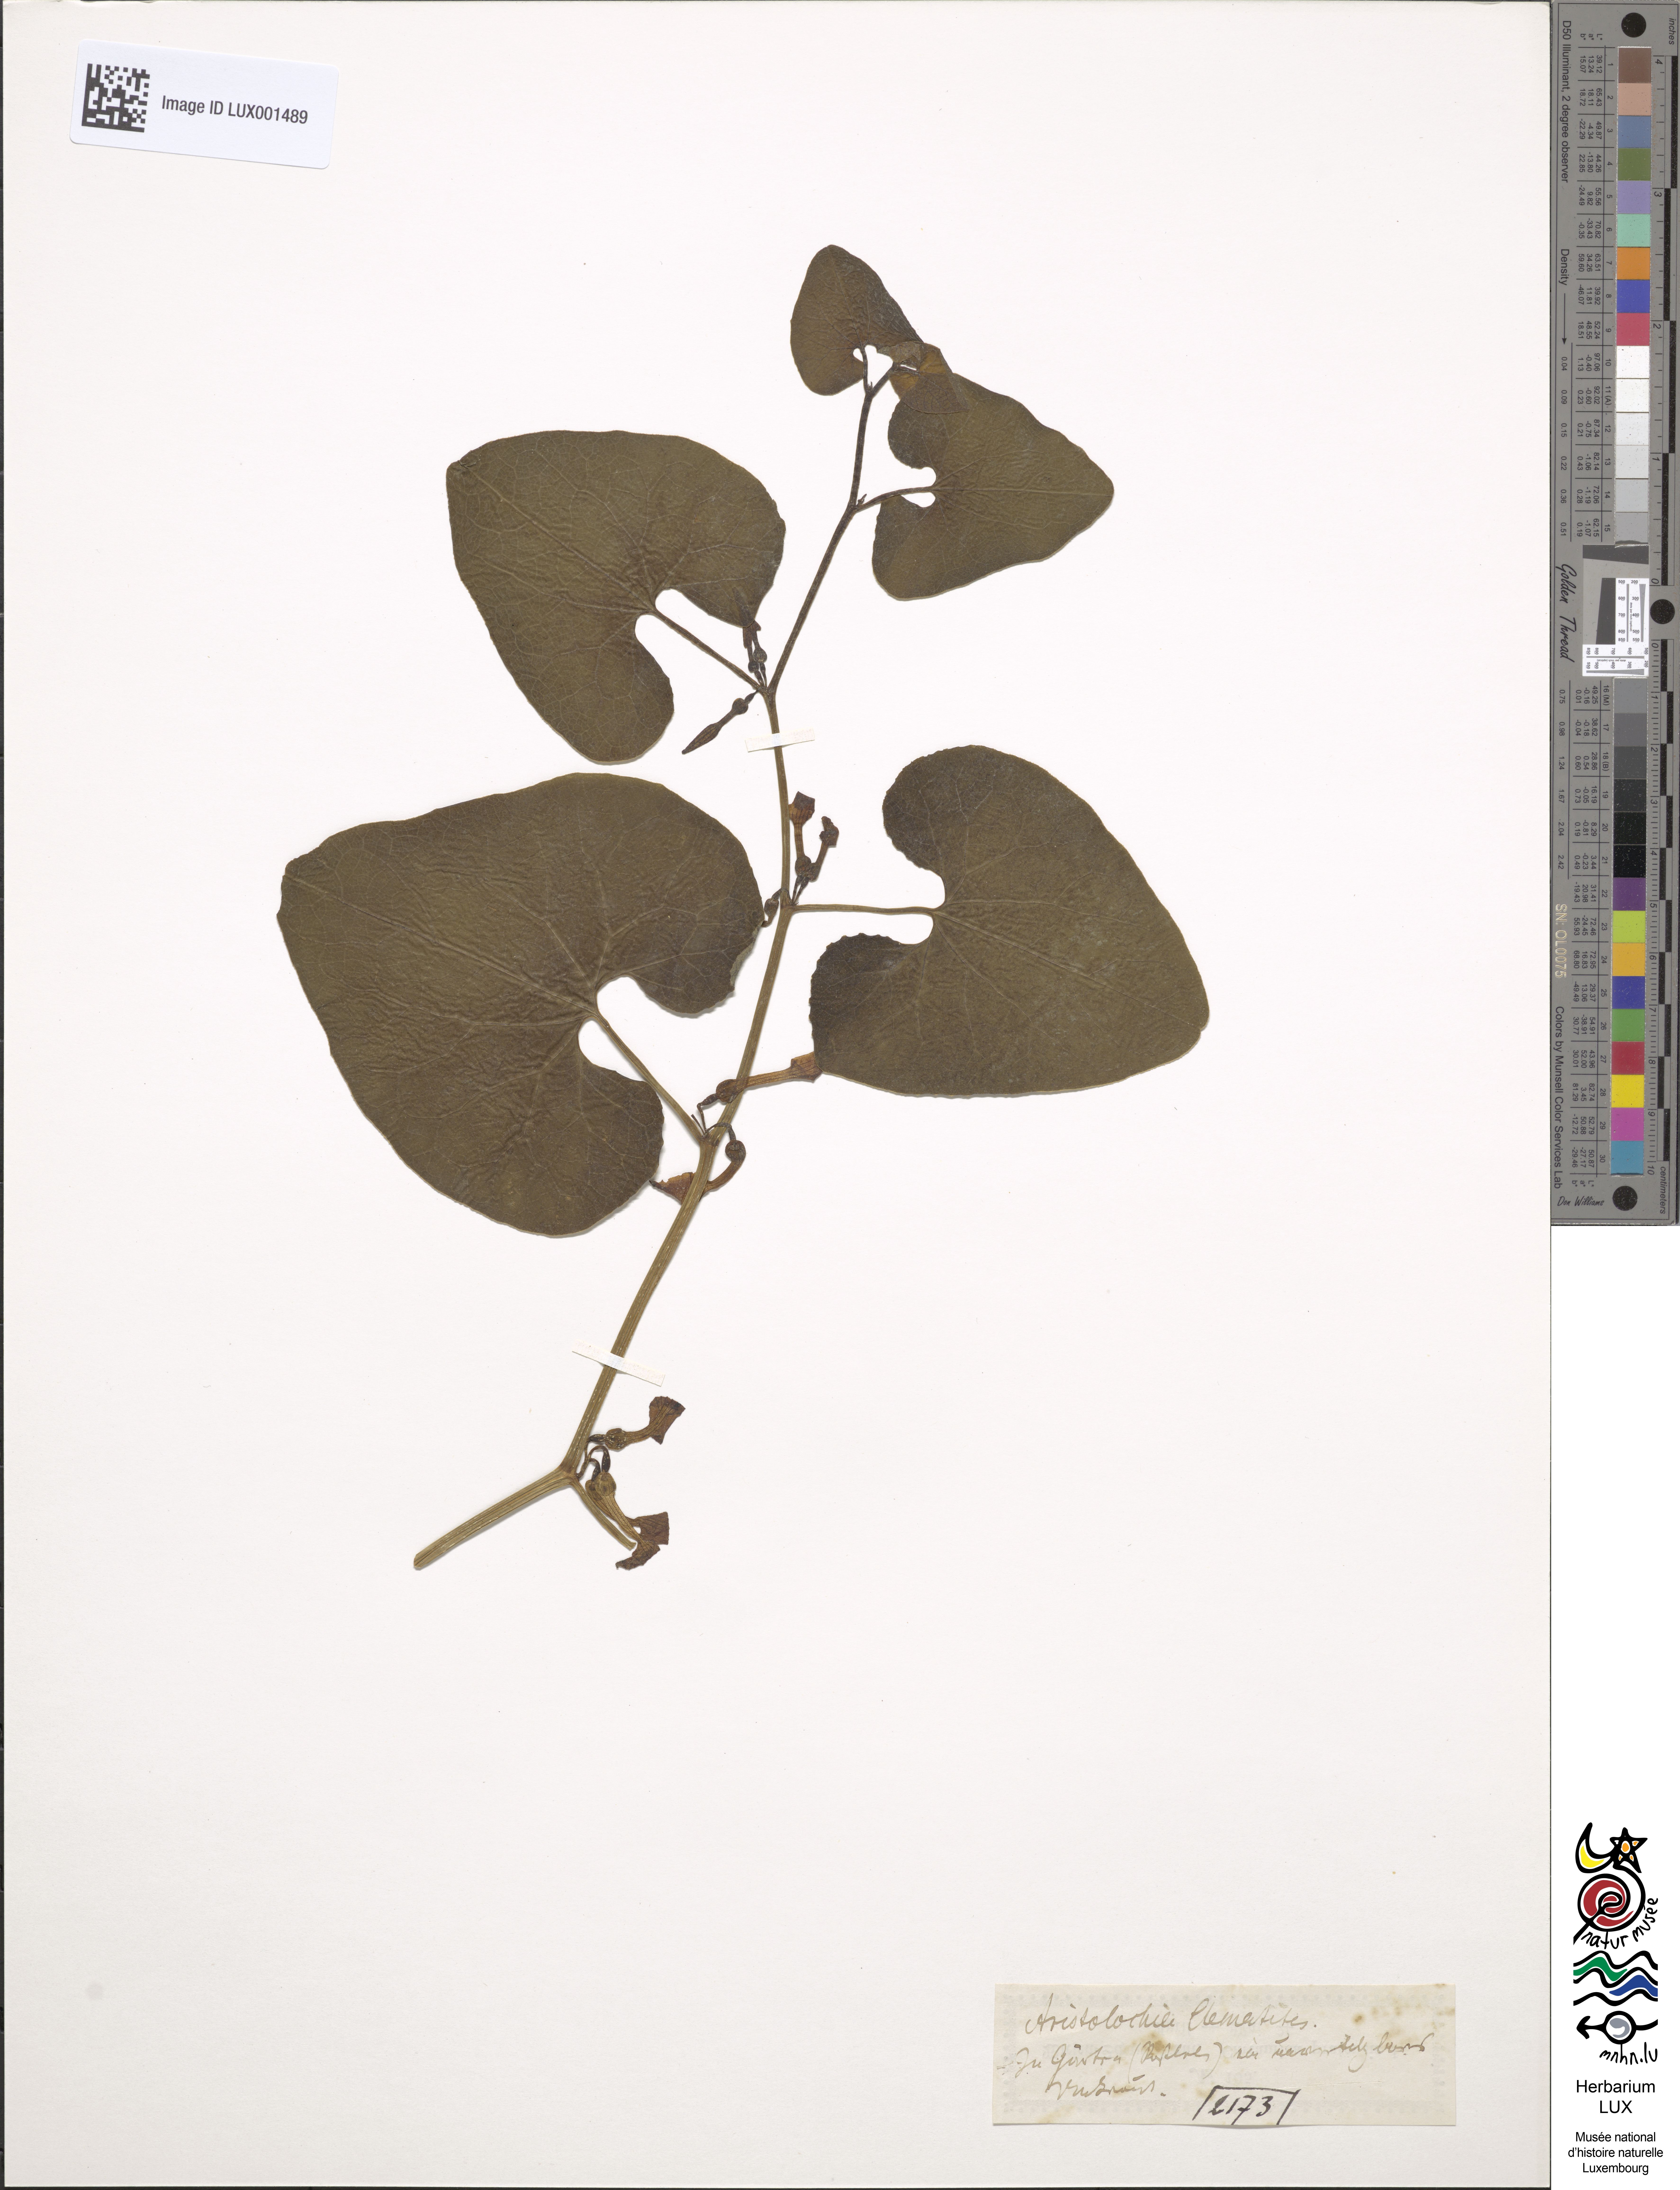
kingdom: Plantae
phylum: Tracheophyta
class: Magnoliopsida
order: Piperales
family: Aristolochiaceae
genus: Aristolochia
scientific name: Aristolochia clematitis
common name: Birthwort
